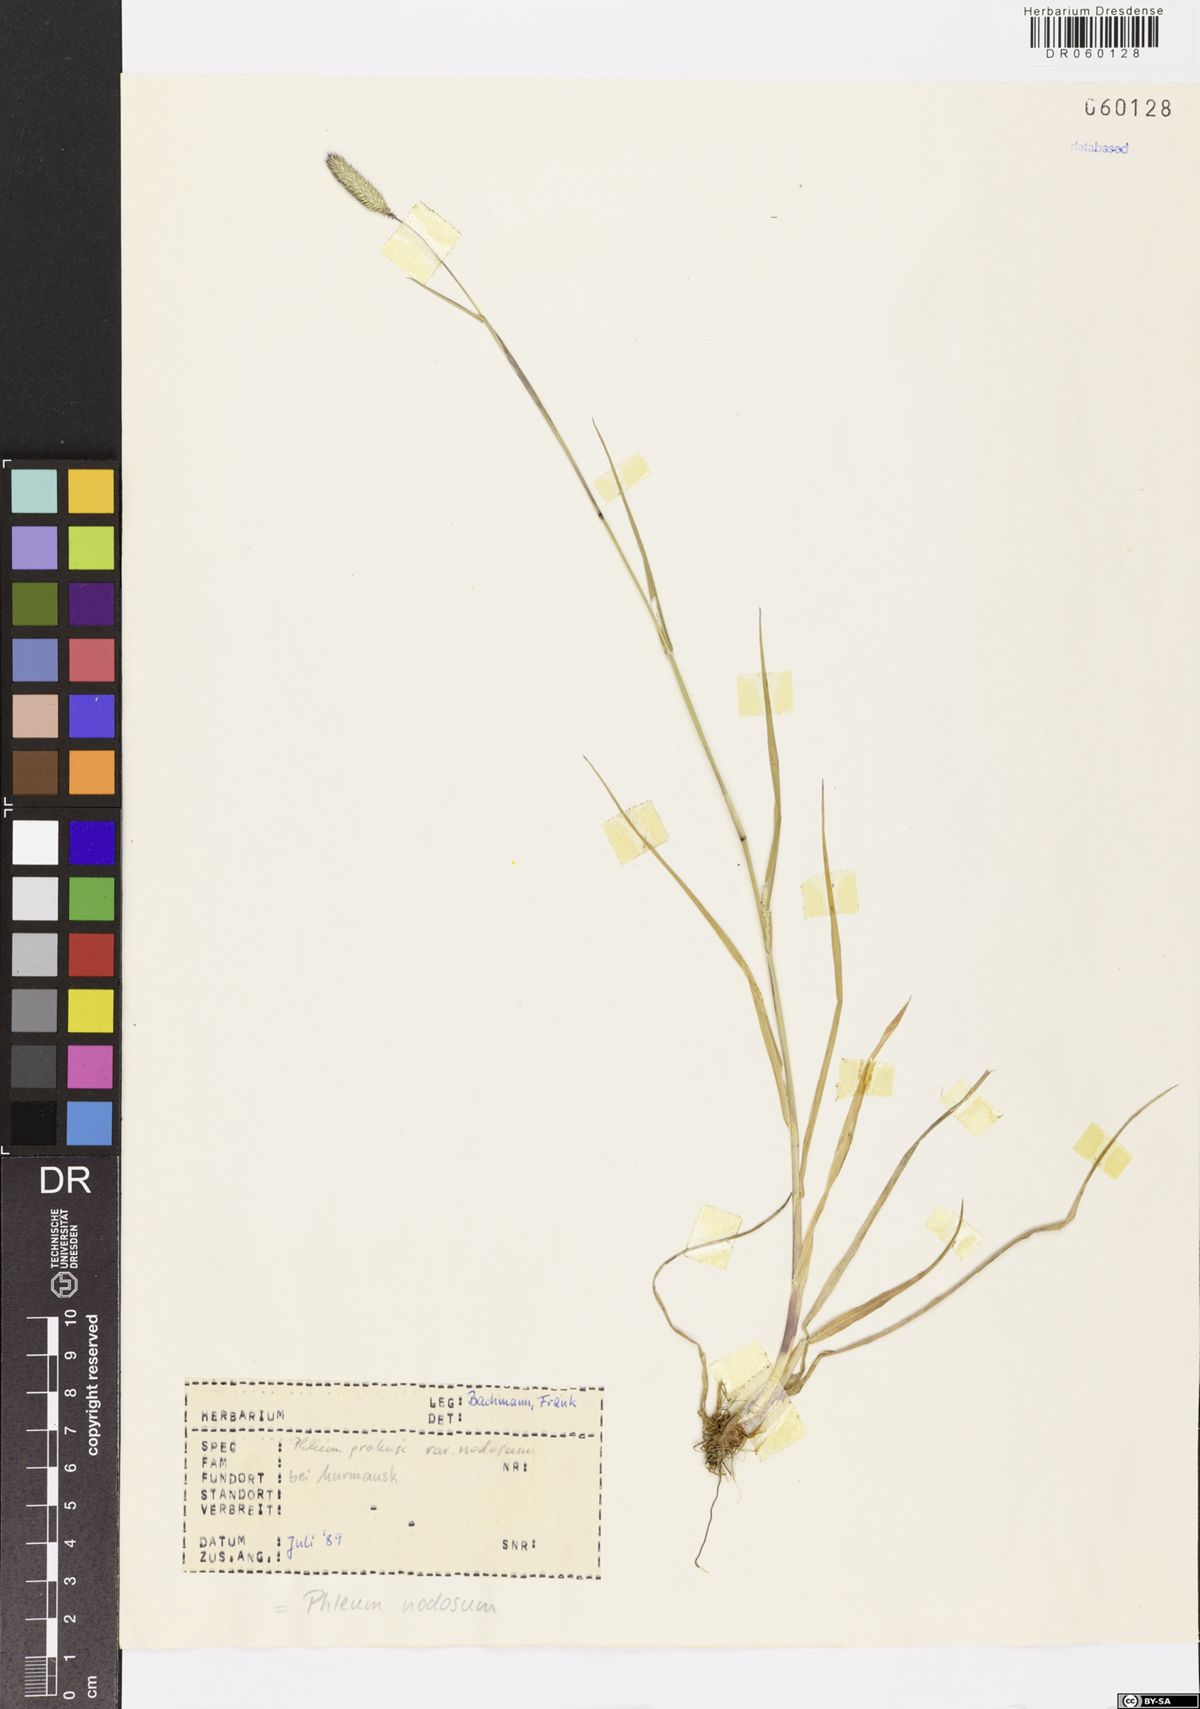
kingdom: Plantae
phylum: Tracheophyta
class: Liliopsida
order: Poales
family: Poaceae
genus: Phleum
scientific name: Phleum pratense
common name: Timothy grass
